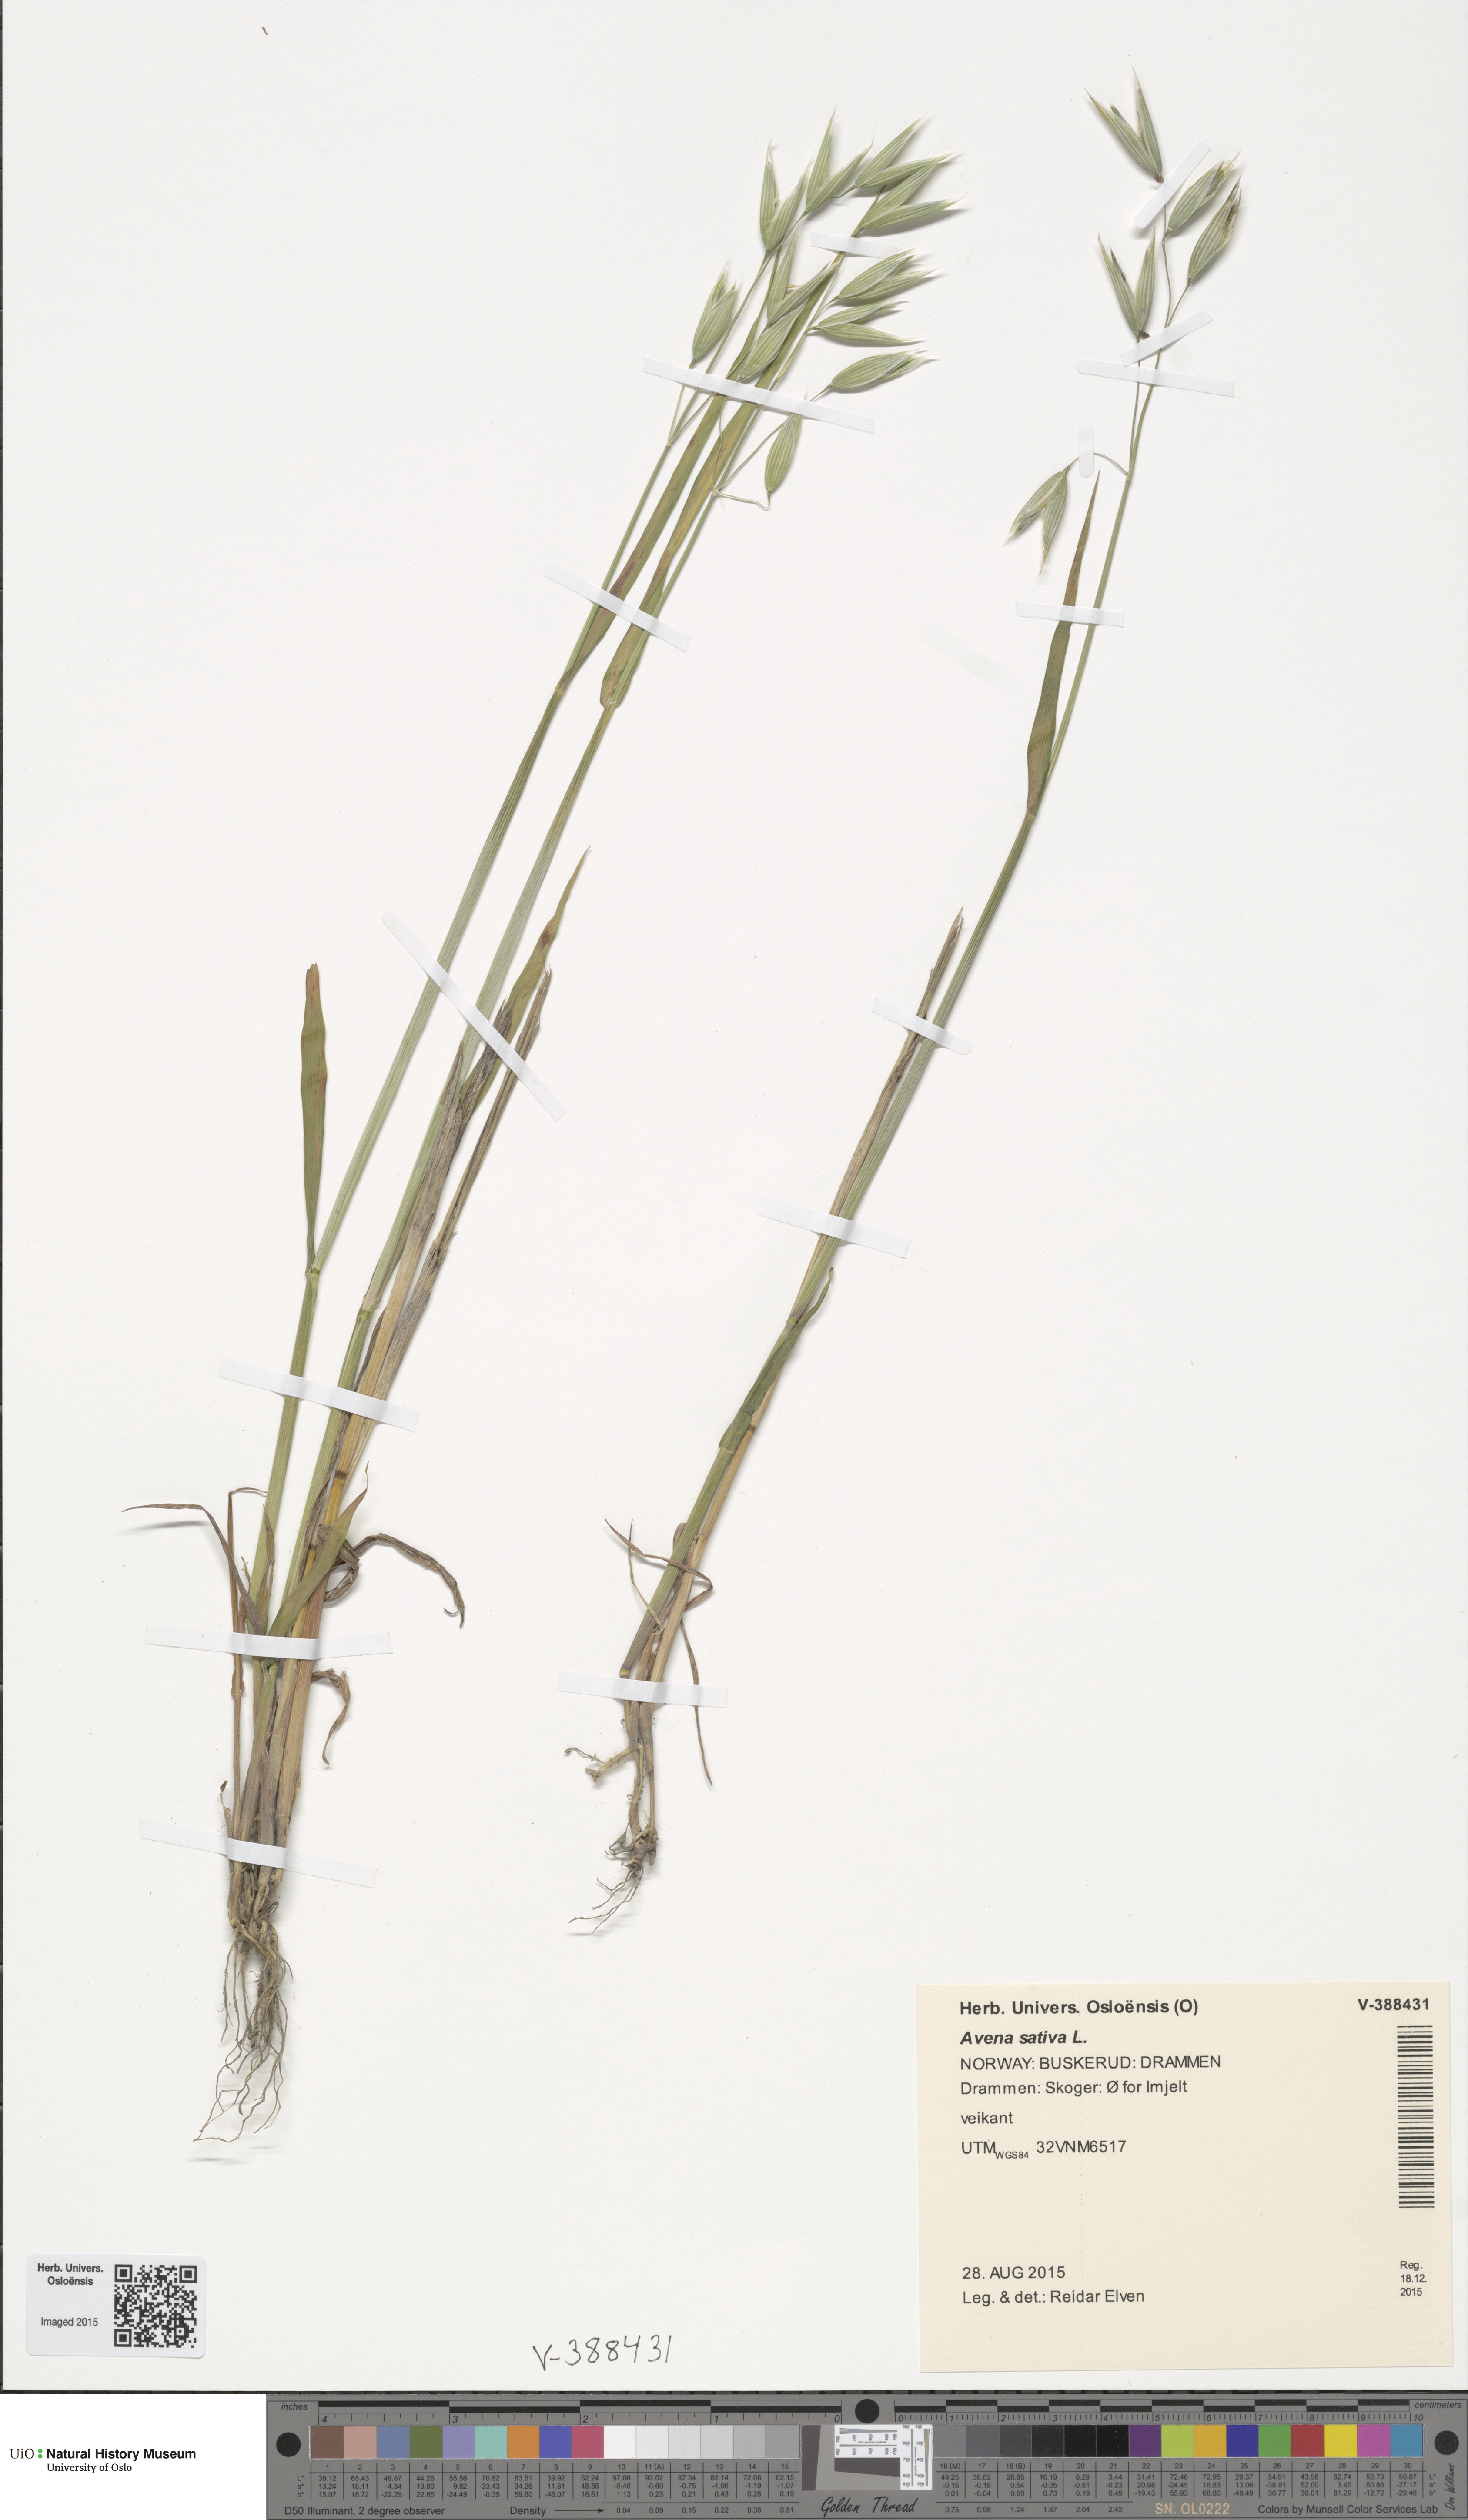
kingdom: Plantae
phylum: Tracheophyta
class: Liliopsida
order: Poales
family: Poaceae
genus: Avena
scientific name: Avena sativa
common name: Oat
